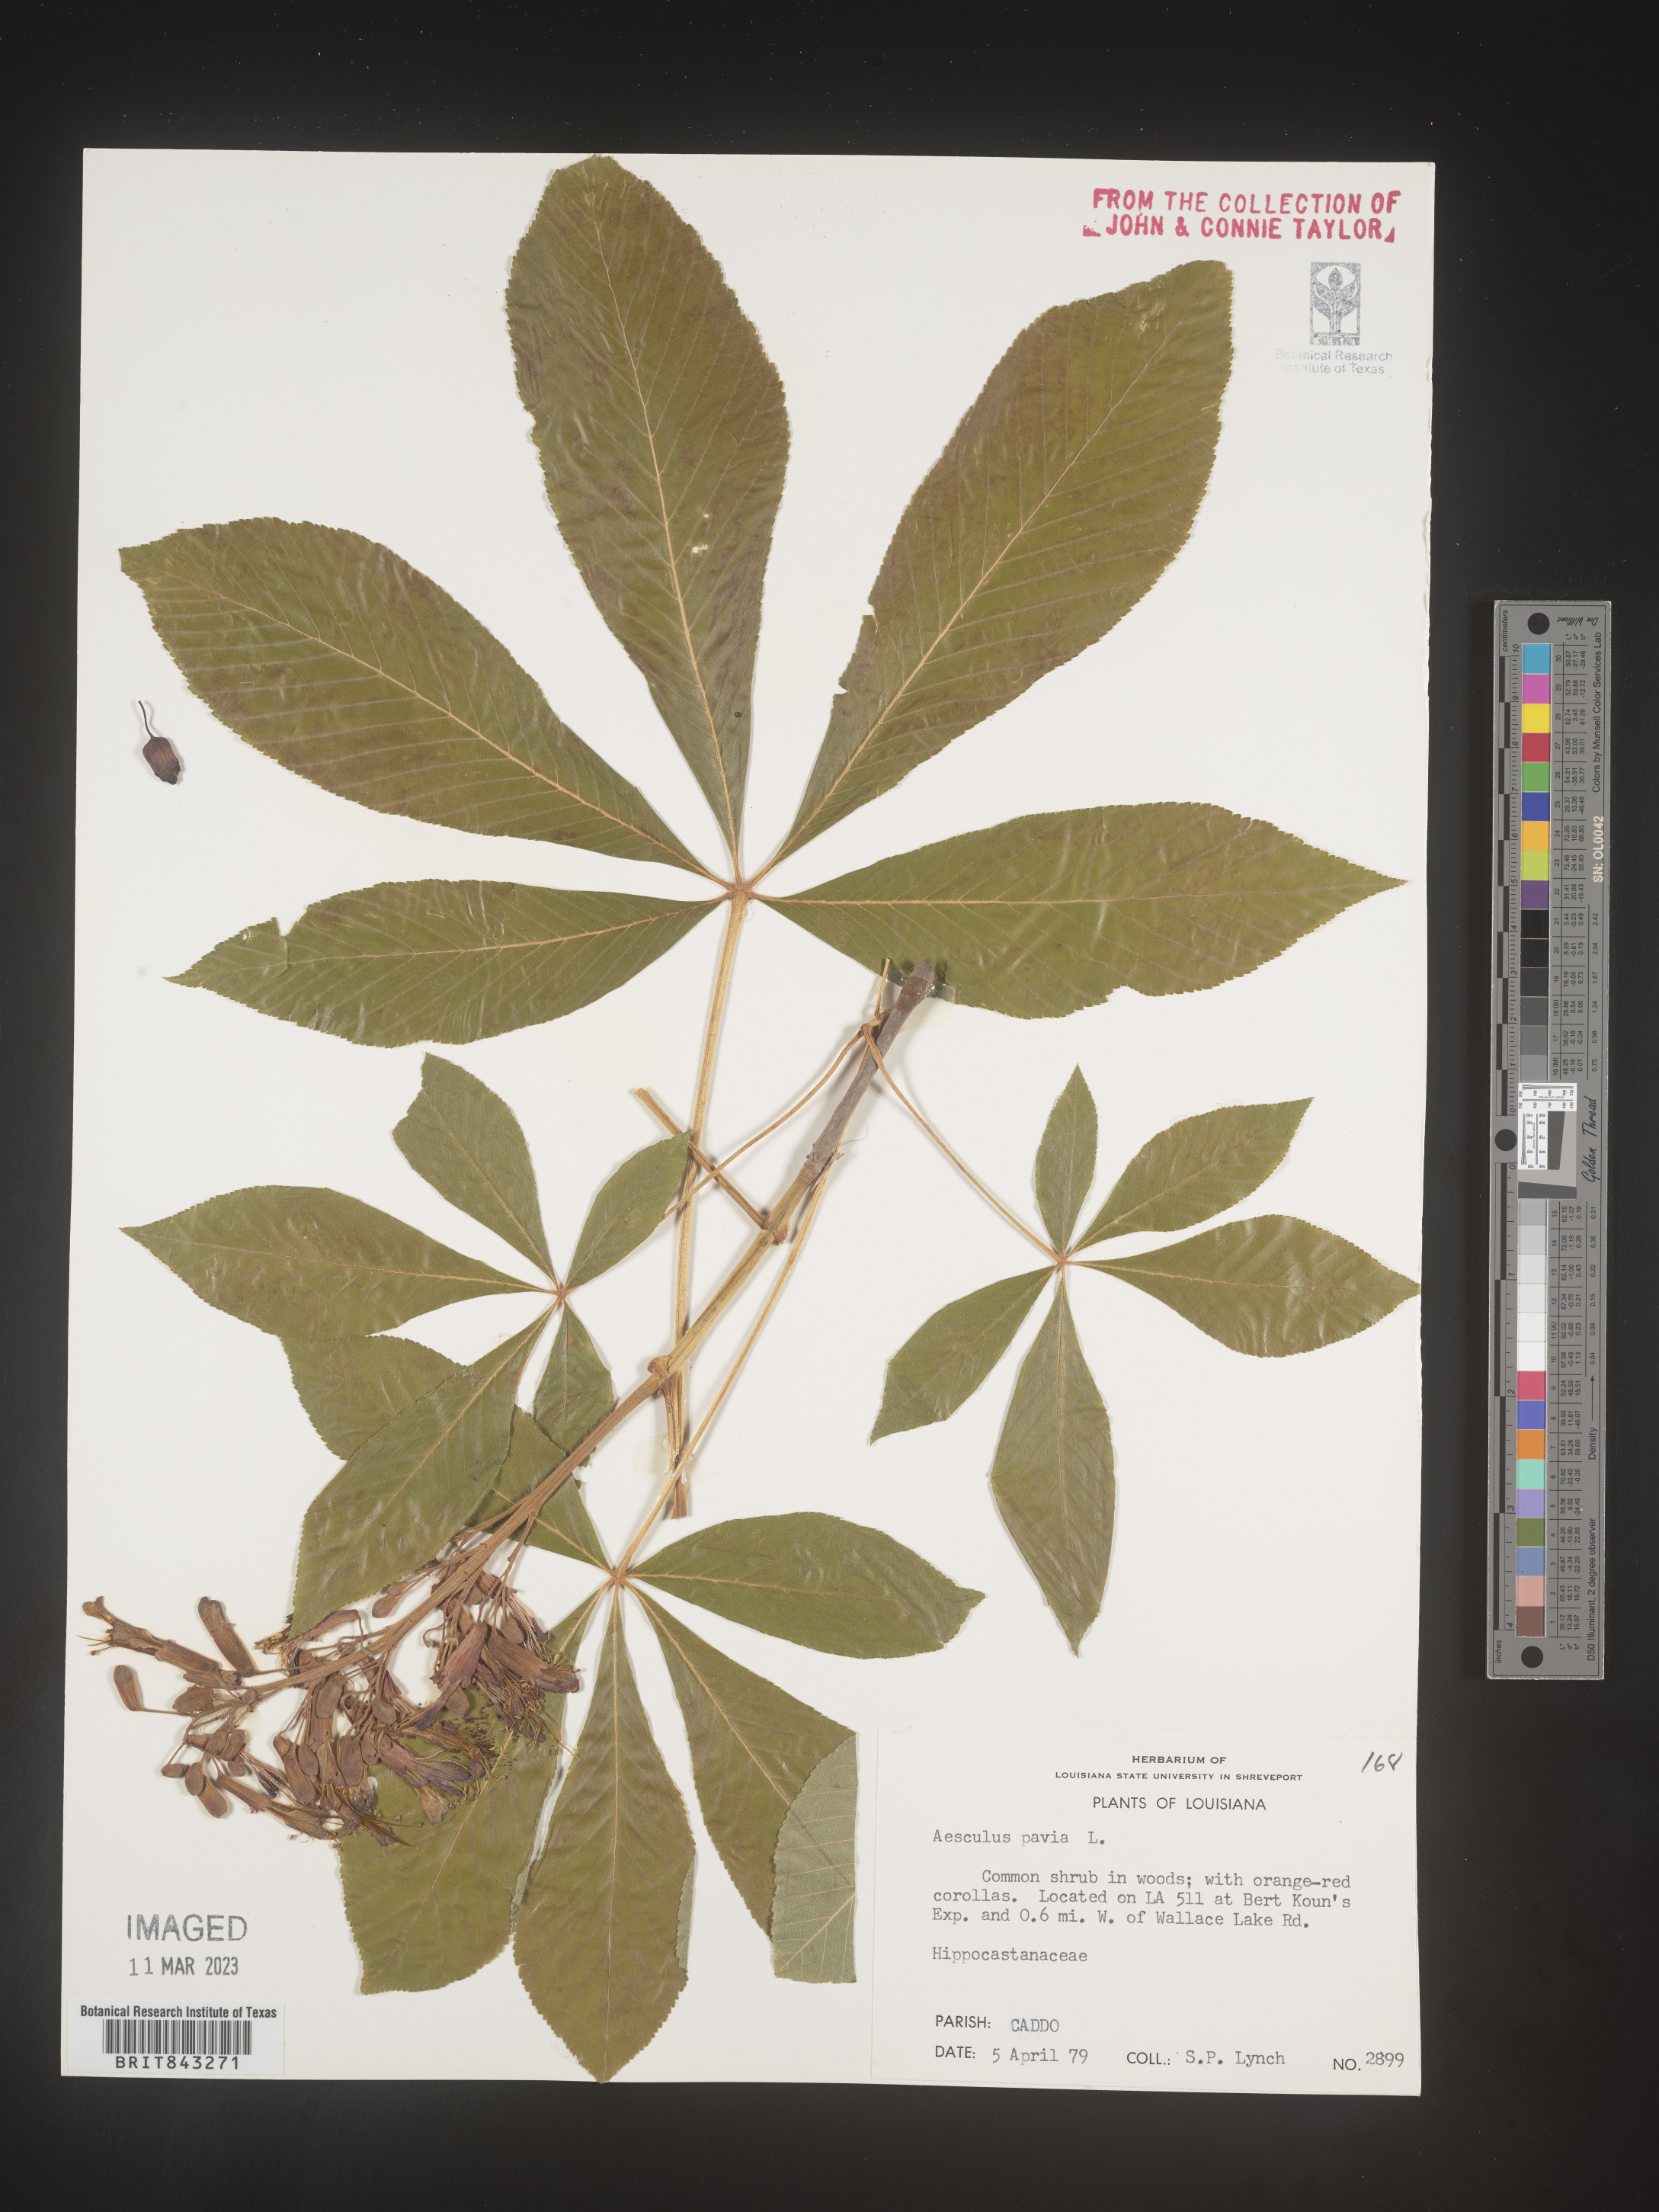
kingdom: Plantae
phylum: Tracheophyta
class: Magnoliopsida
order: Sapindales
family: Sapindaceae
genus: Aesculus
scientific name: Aesculus pavia
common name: Red buckeye
